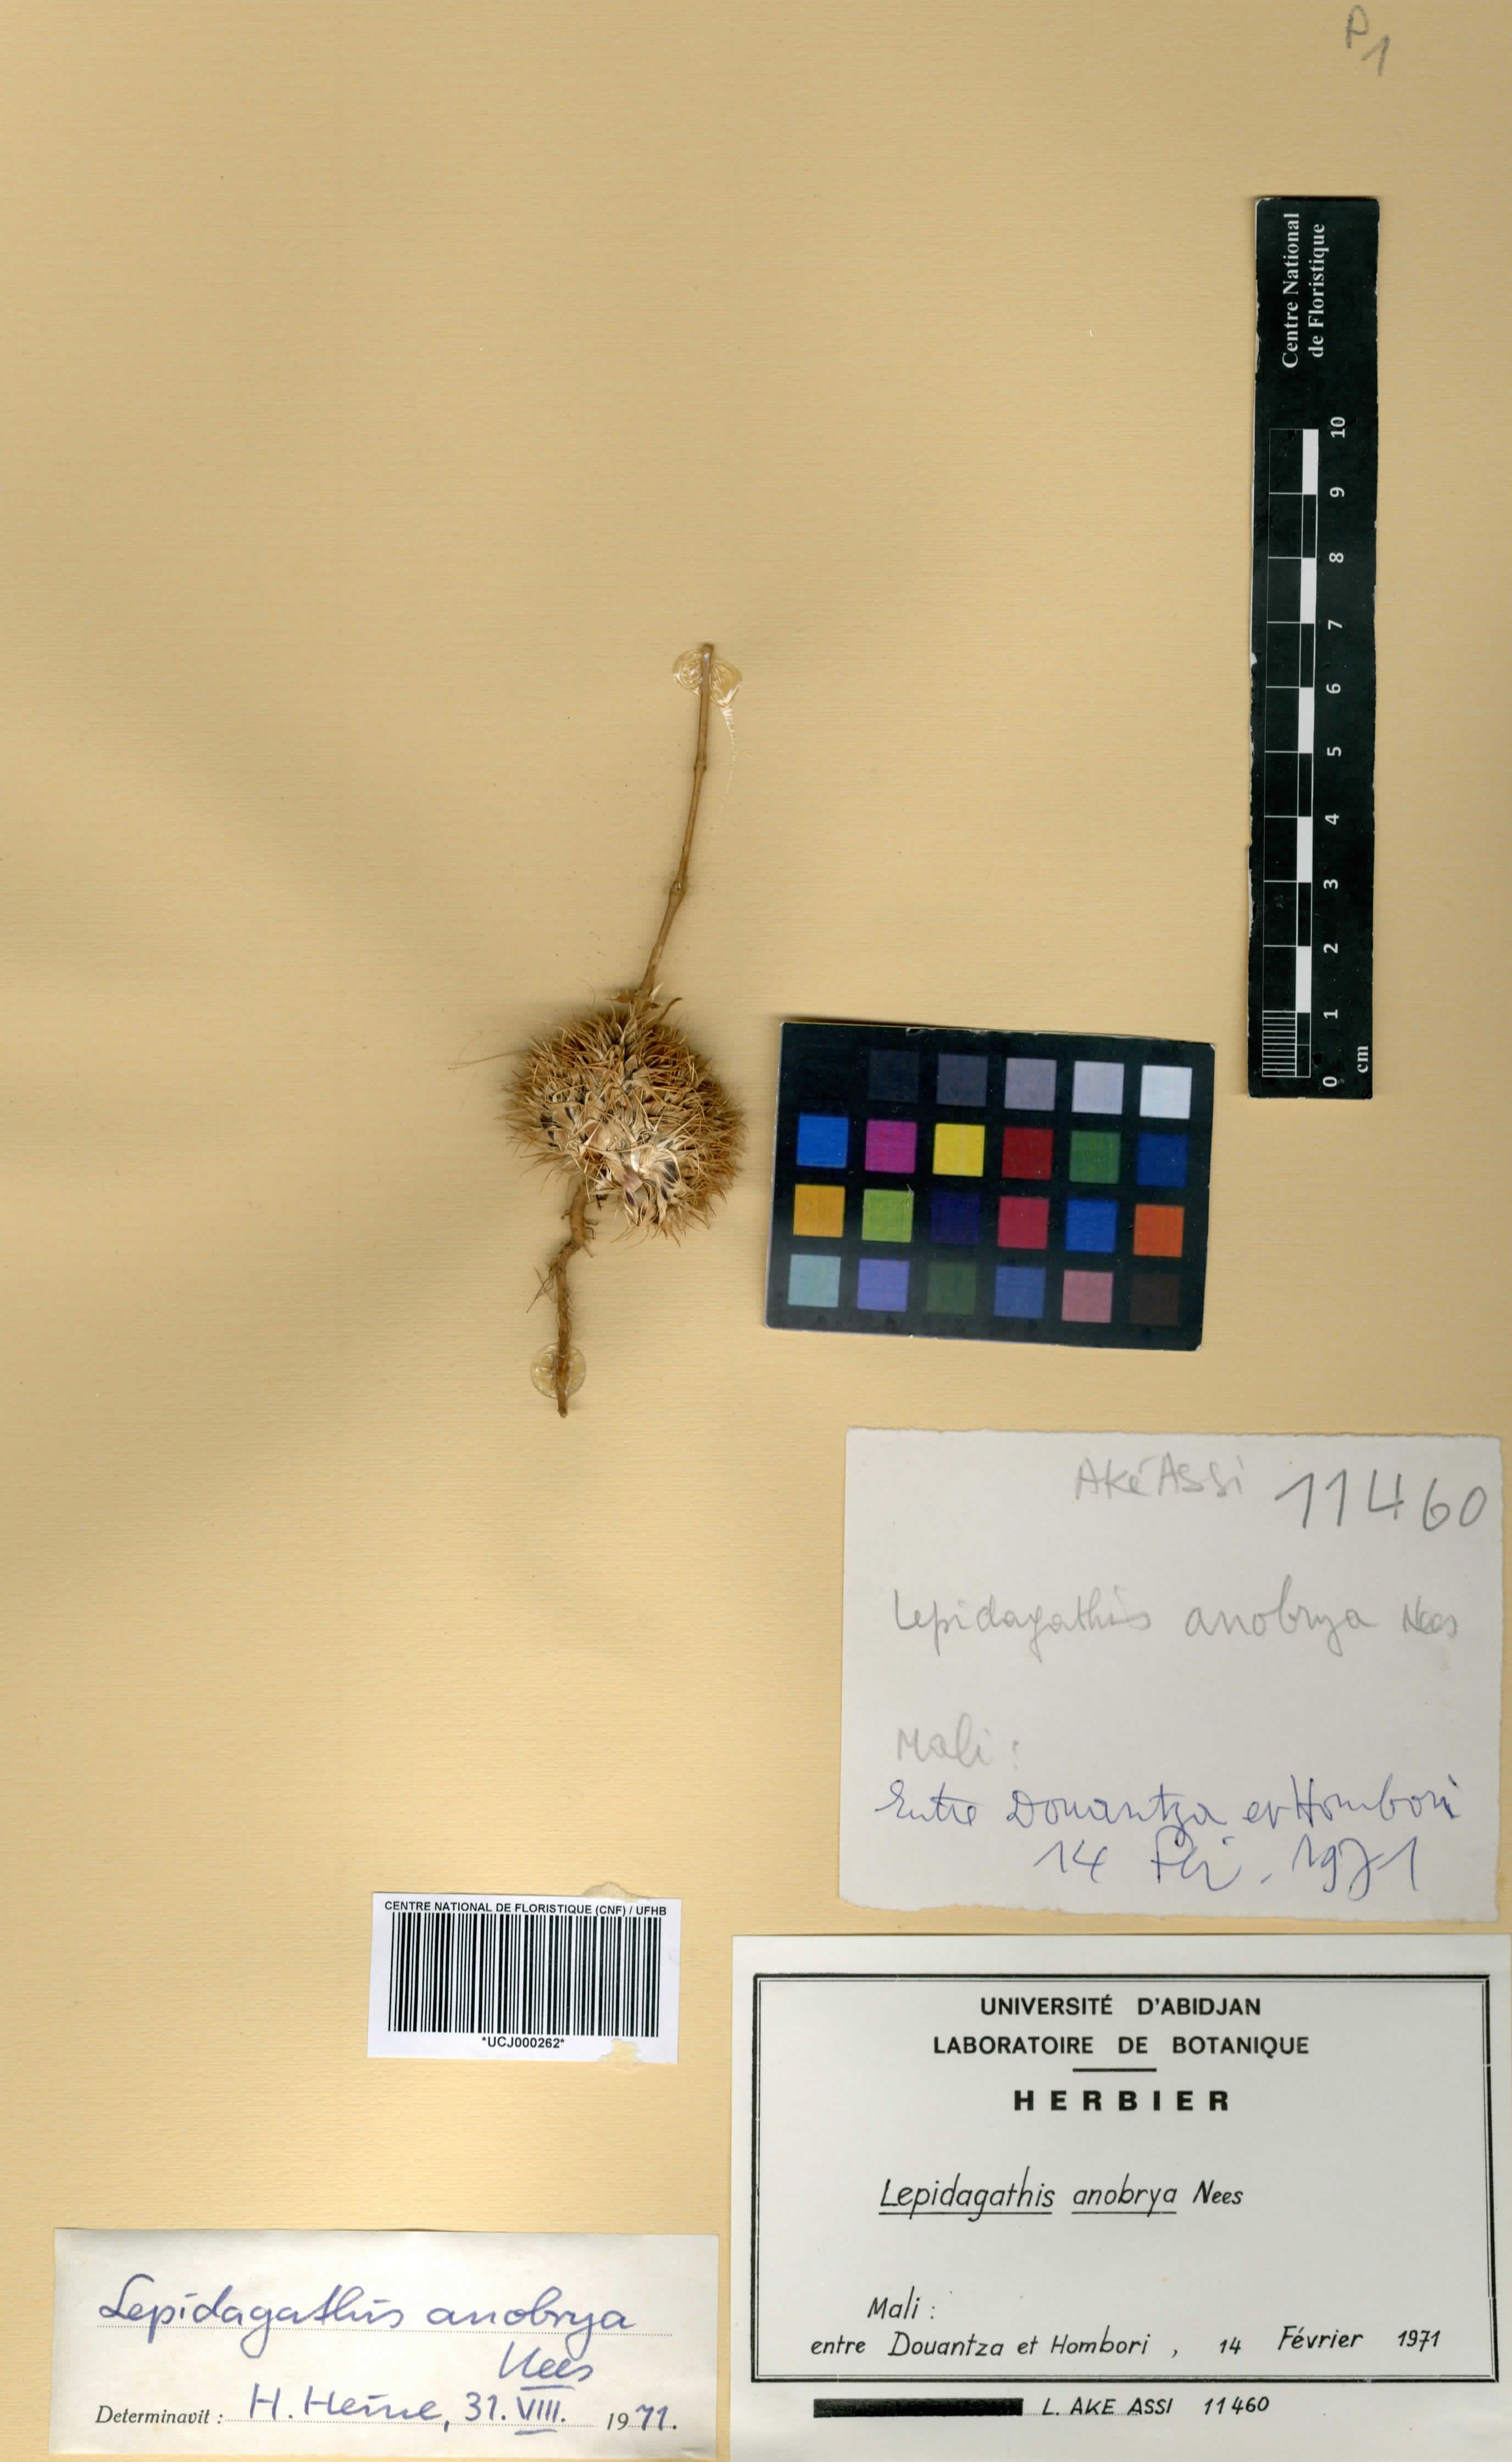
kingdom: Plantae
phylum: Tracheophyta
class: Magnoliopsida
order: Lamiales
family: Acanthaceae
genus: Lepidagathis
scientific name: Lepidagathis anobrya
